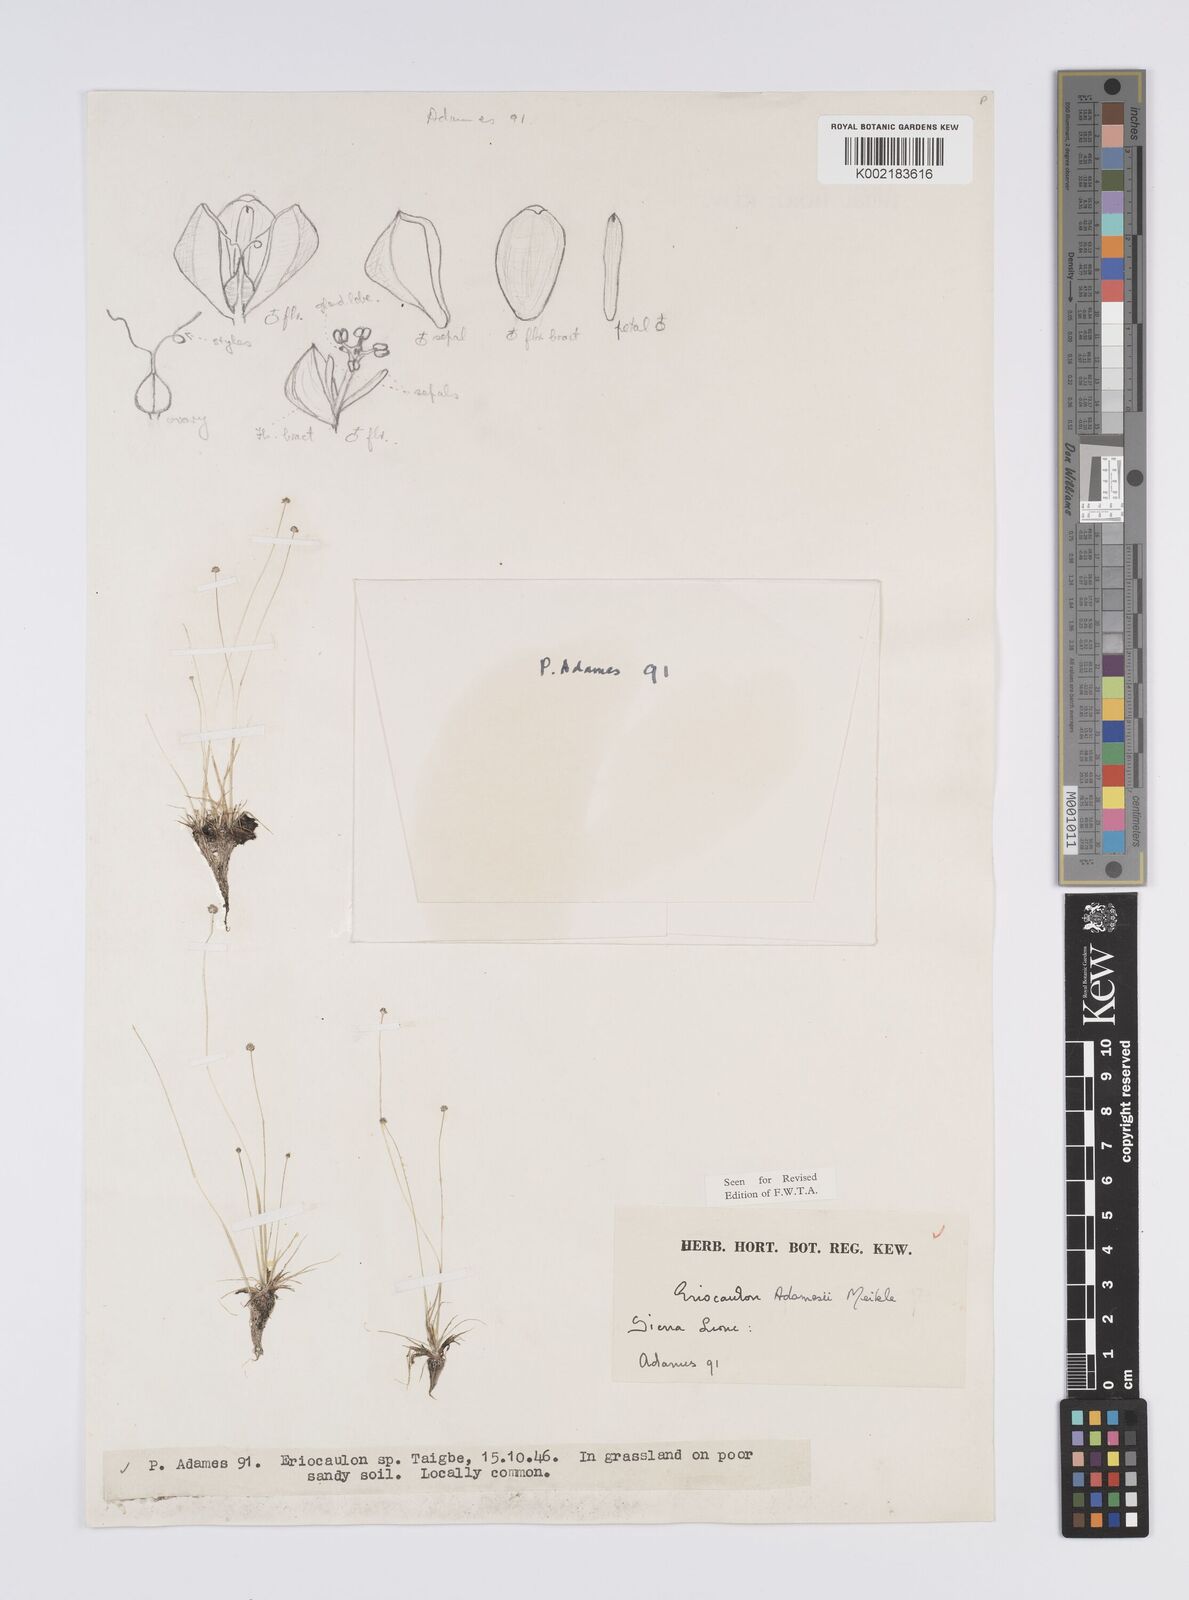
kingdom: Plantae
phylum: Tracheophyta
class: Liliopsida
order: Poales
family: Eriocaulaceae
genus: Eriocaulon
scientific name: Eriocaulon adamesii
